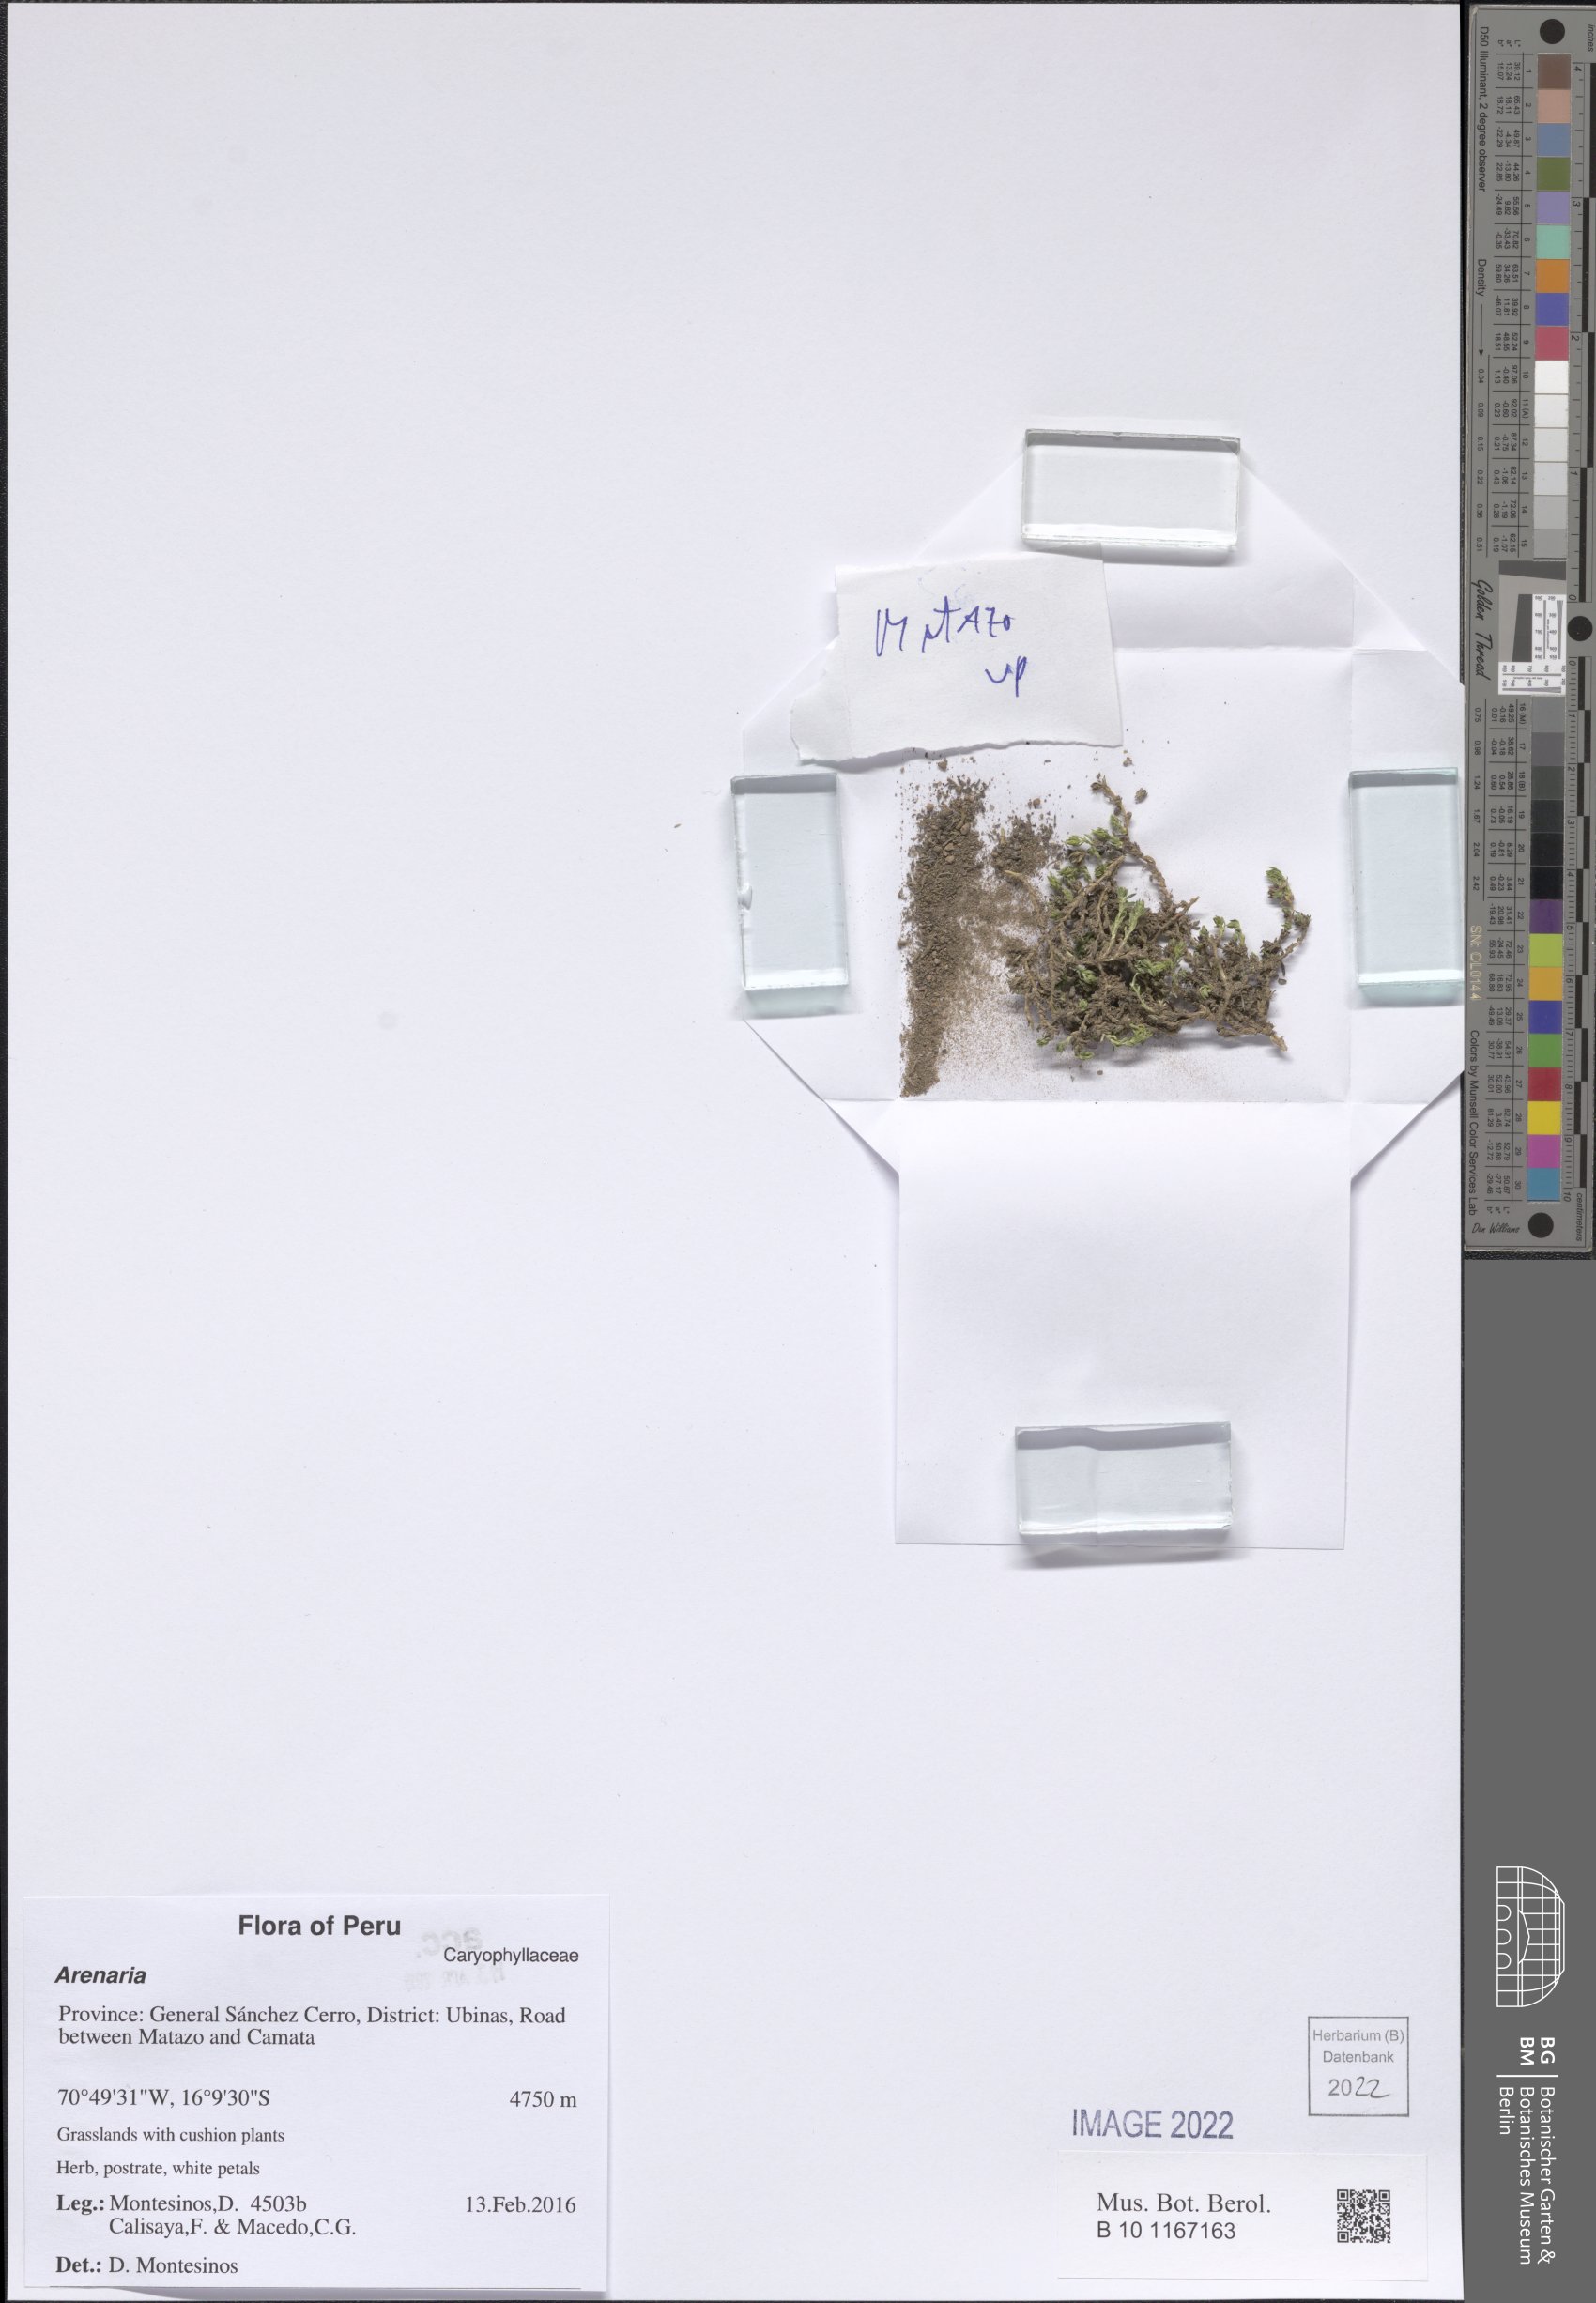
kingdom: Plantae
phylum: Tracheophyta
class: Magnoliopsida
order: Caryophyllales
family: Caryophyllaceae
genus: Arenaria
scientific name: Arenaria
